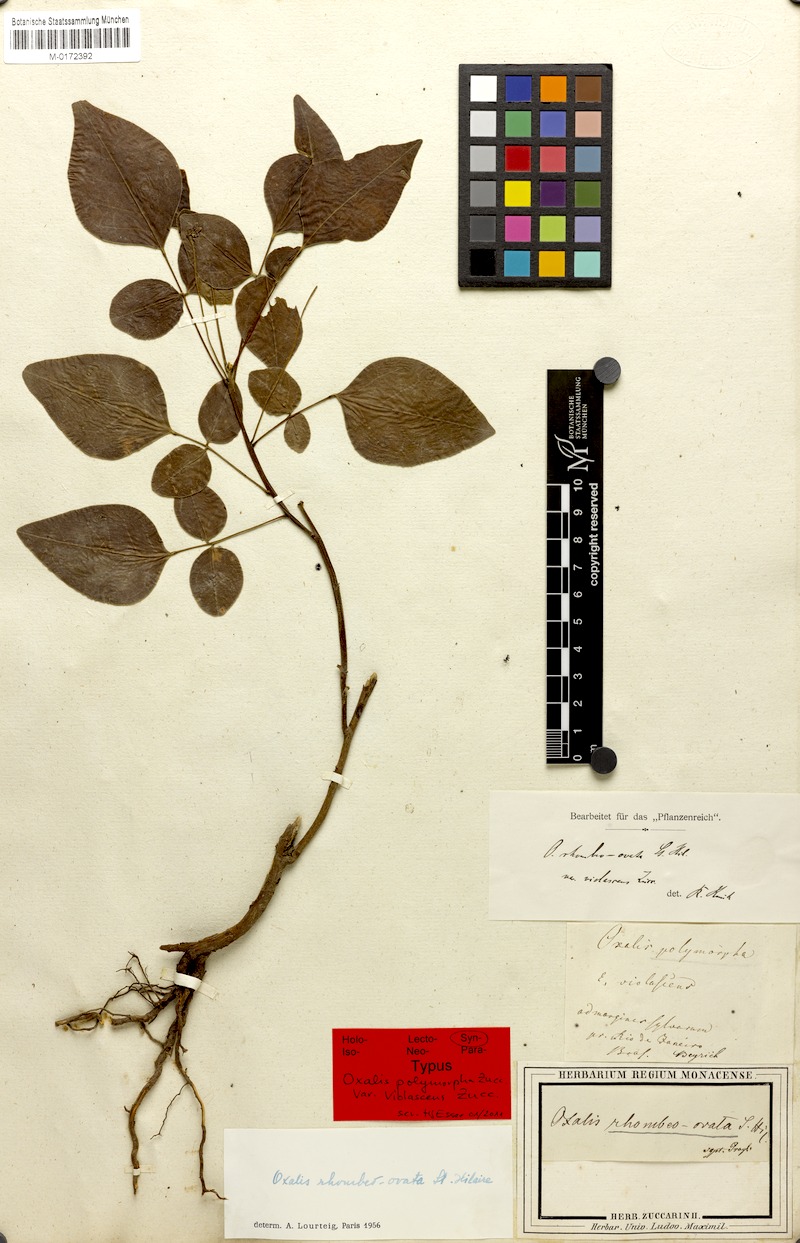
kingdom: Plantae
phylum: Tracheophyta
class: Magnoliopsida
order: Oxalidales
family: Oxalidaceae
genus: Oxalis
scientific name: Oxalis rhombeo-ovata
